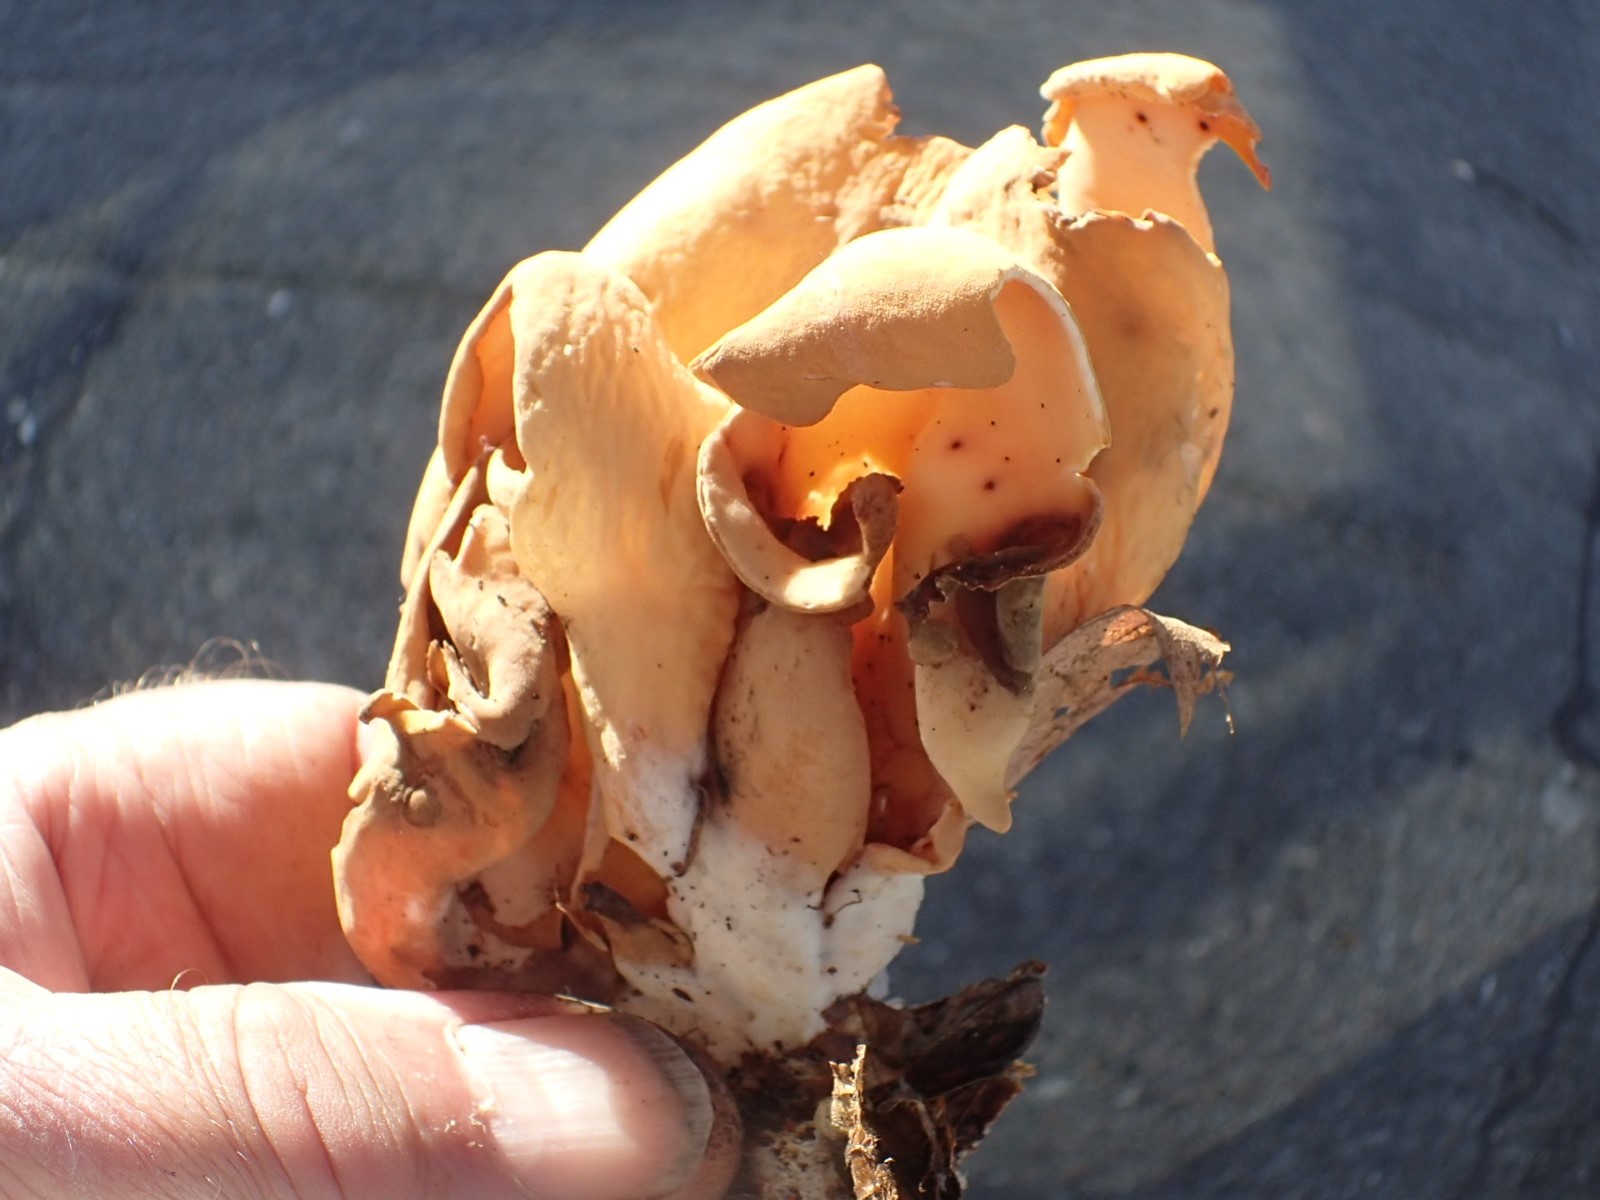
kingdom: Fungi
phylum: Ascomycota
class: Pezizomycetes
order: Pezizales
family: Otideaceae
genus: Otidea
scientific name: Otidea onotica
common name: æsel-ørebæger
